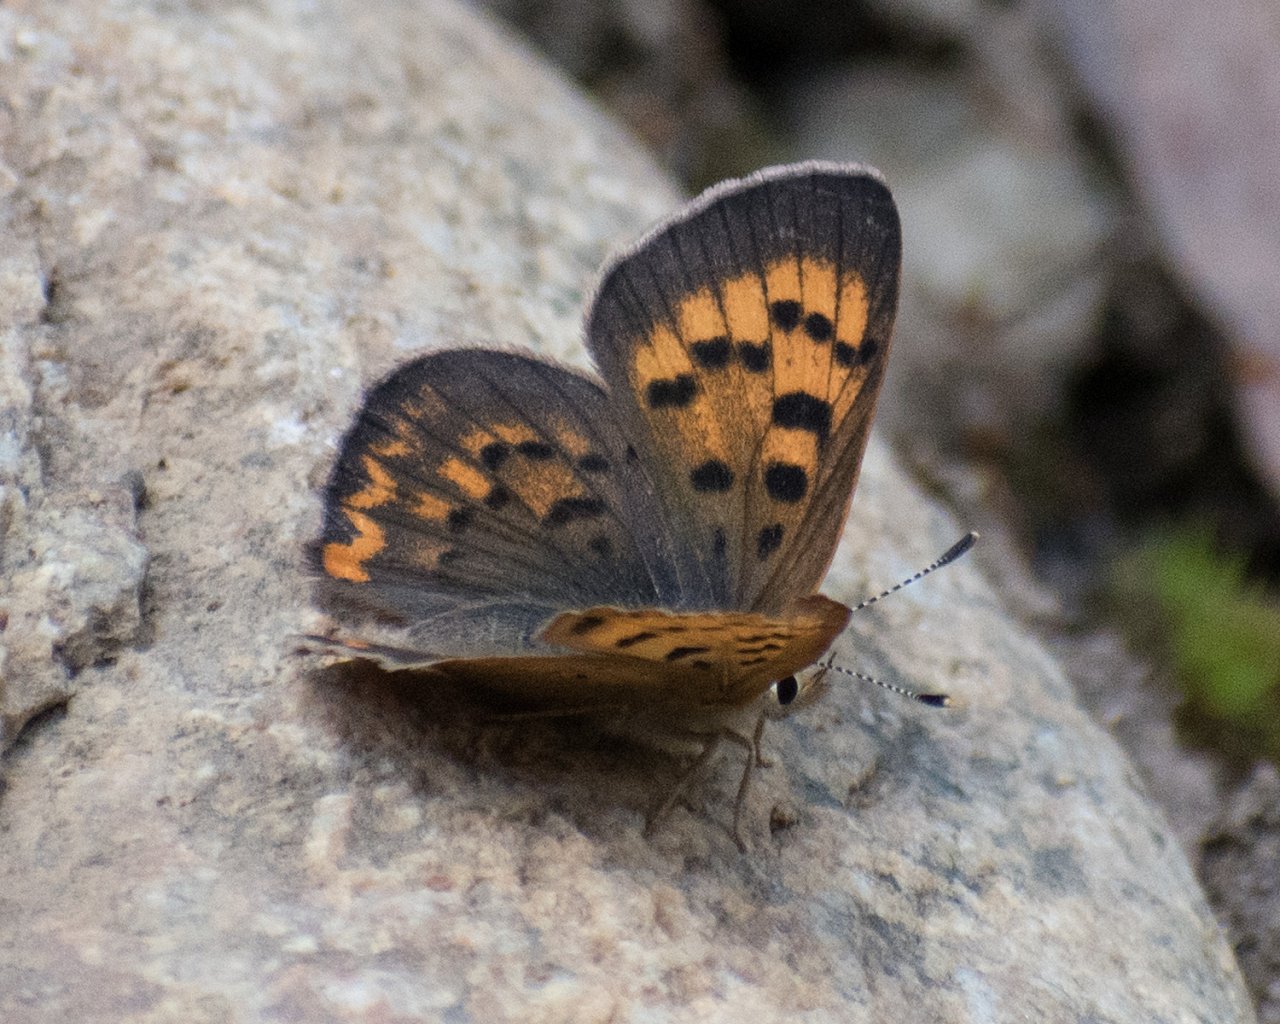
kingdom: Animalia
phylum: Arthropoda
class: Insecta
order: Lepidoptera
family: Sesiidae
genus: Sesia
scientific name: Sesia Lycaena helloides
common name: Purplish Copper
